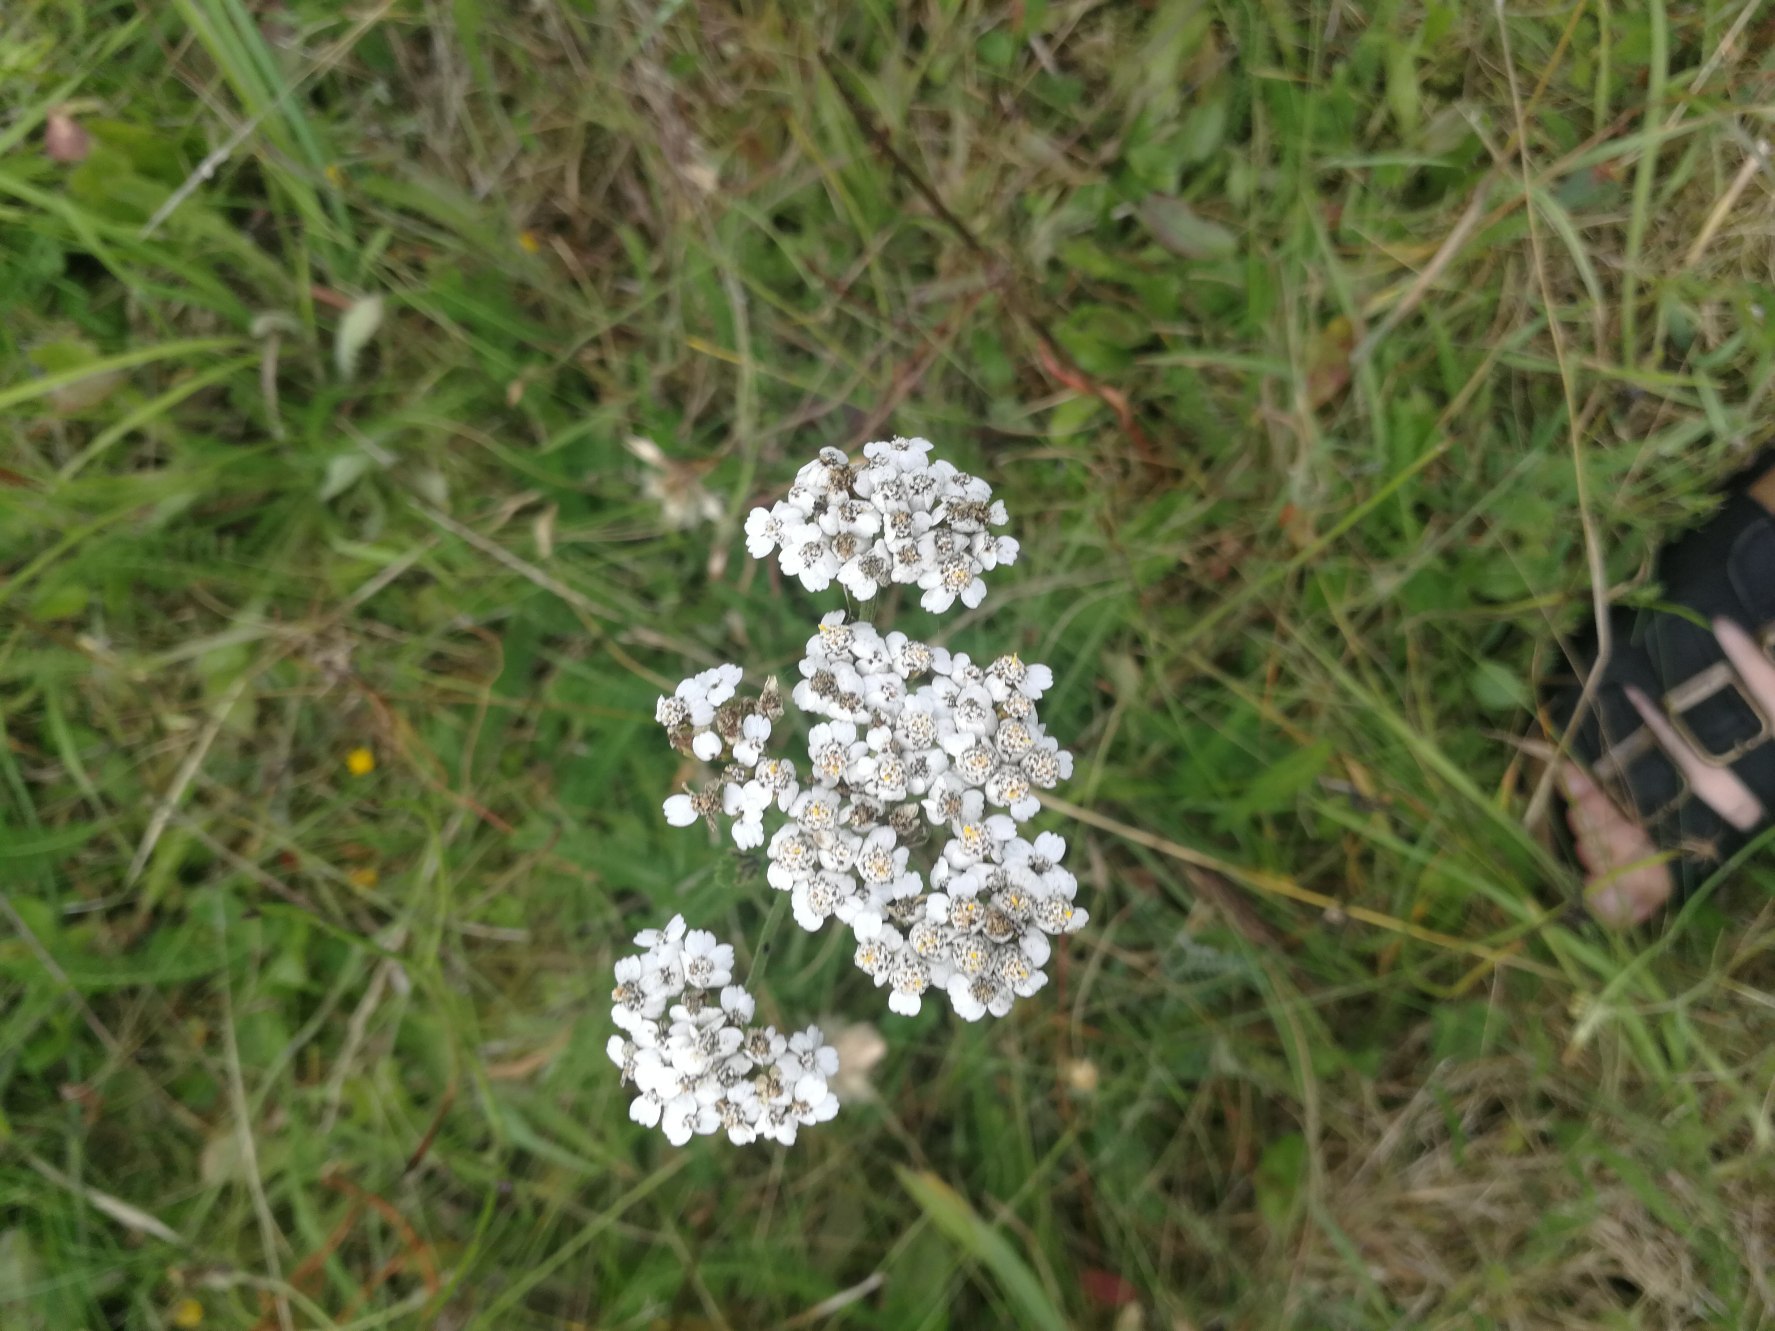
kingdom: Plantae
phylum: Tracheophyta
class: Magnoliopsida
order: Asterales
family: Asteraceae
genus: Achillea
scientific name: Achillea millefolium
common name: Almindelig røllike
